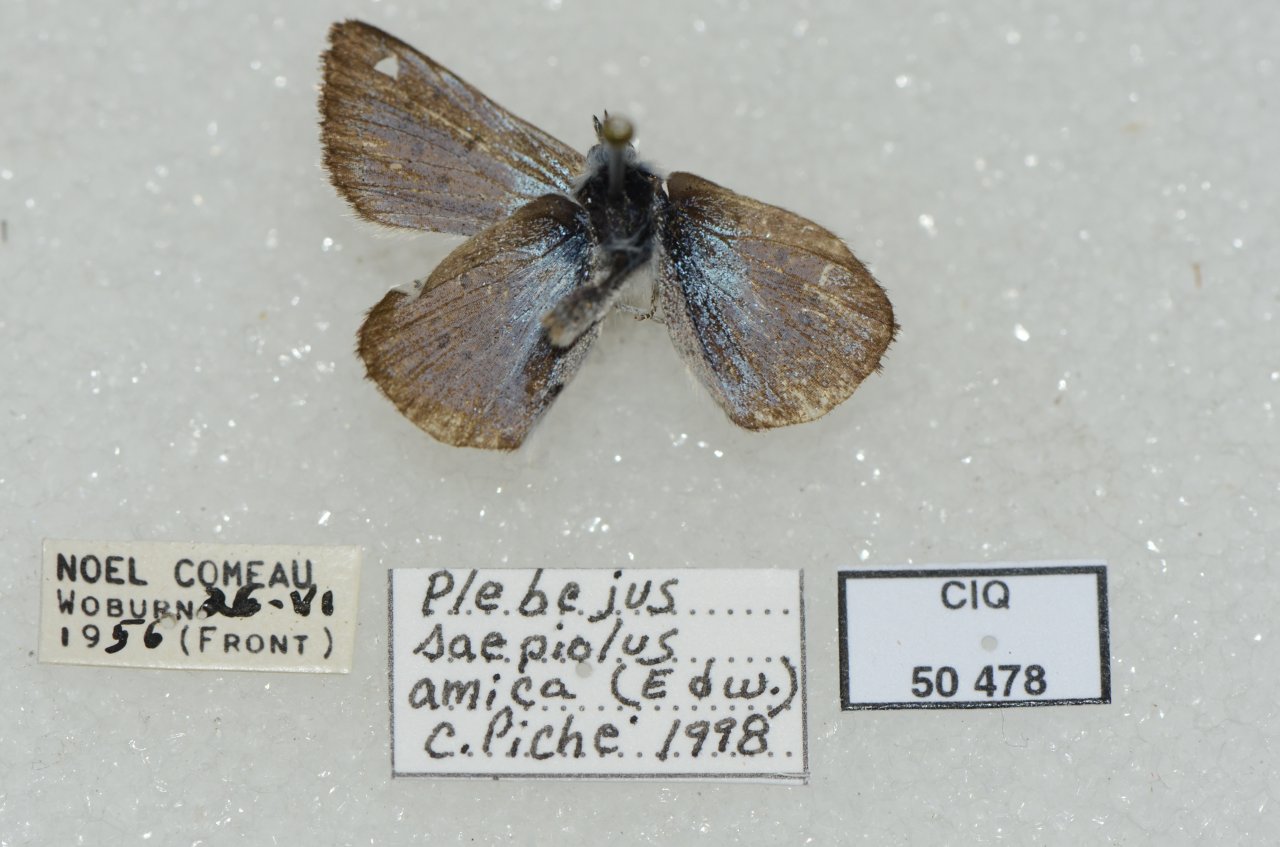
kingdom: Animalia
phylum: Arthropoda
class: Insecta
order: Lepidoptera
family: Lycaenidae
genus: Plebejus
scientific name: Plebejus saepiolus
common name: Greenish Blue
